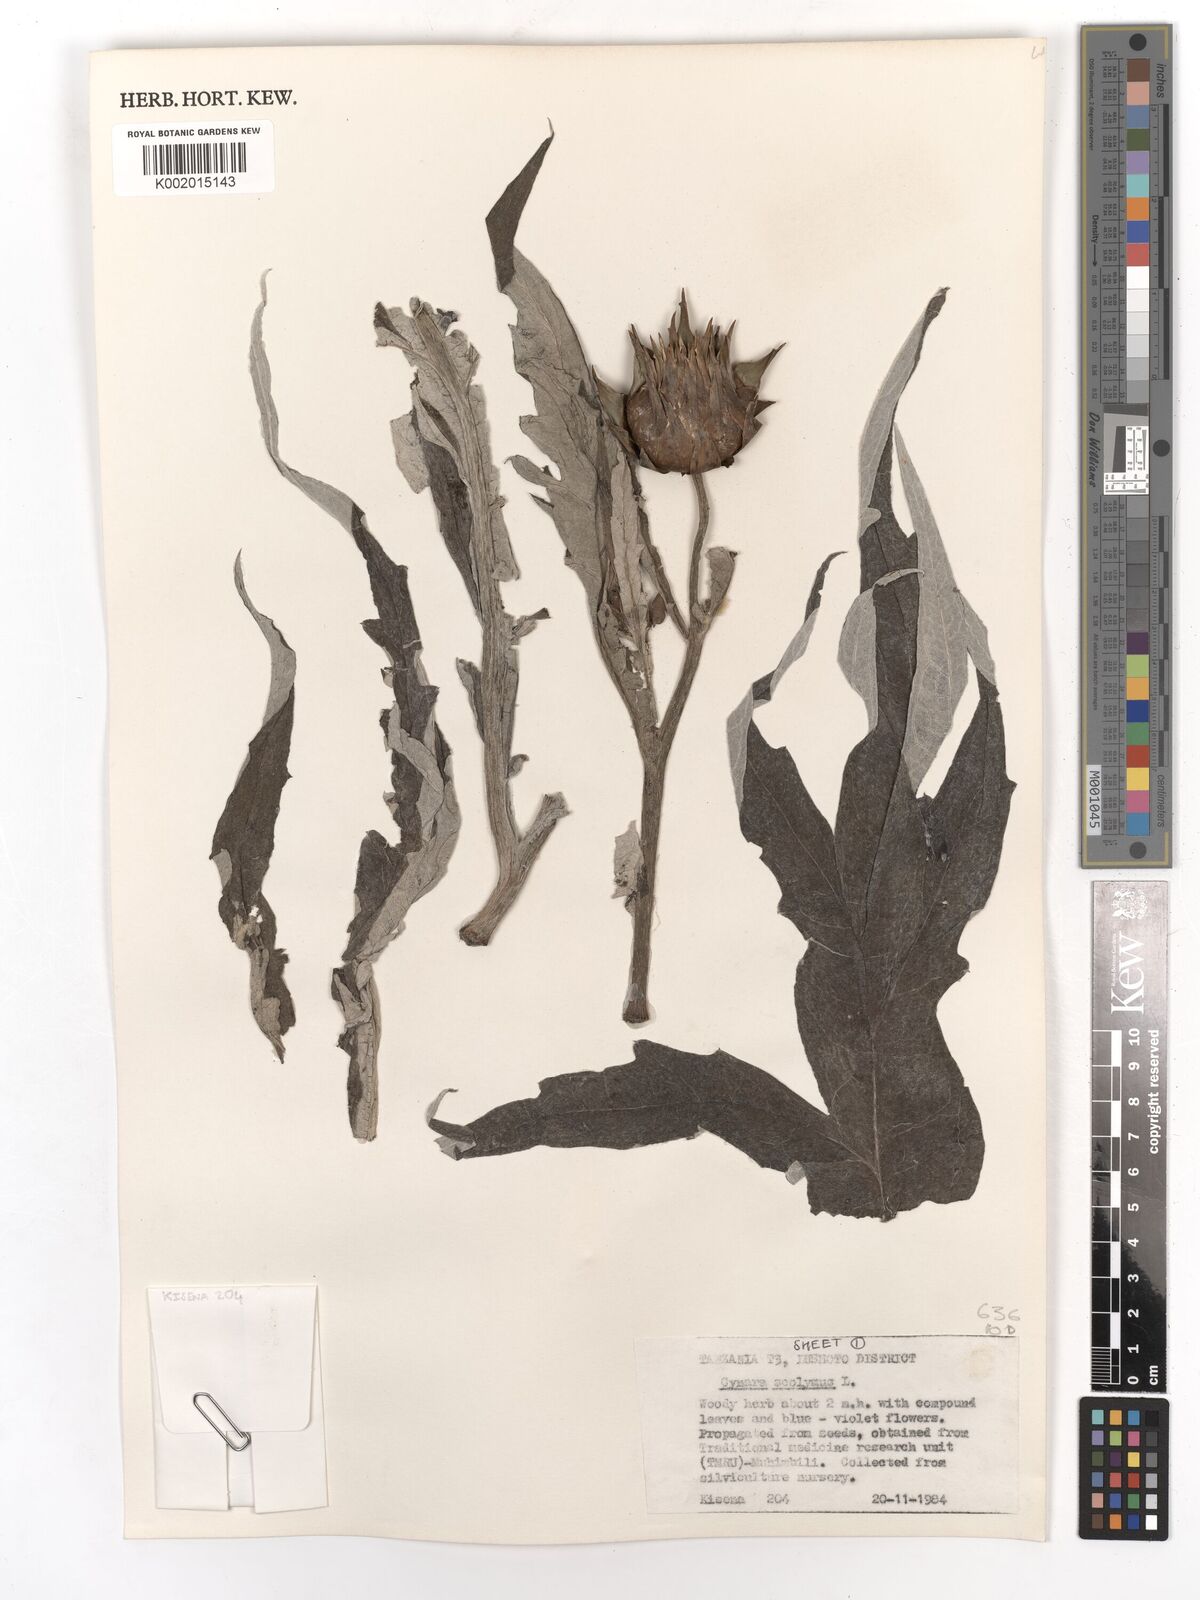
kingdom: Plantae
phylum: Tracheophyta
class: Magnoliopsida
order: Asterales
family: Asteraceae
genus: Cynara
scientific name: Cynara cardunculus
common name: Globe artichoke
